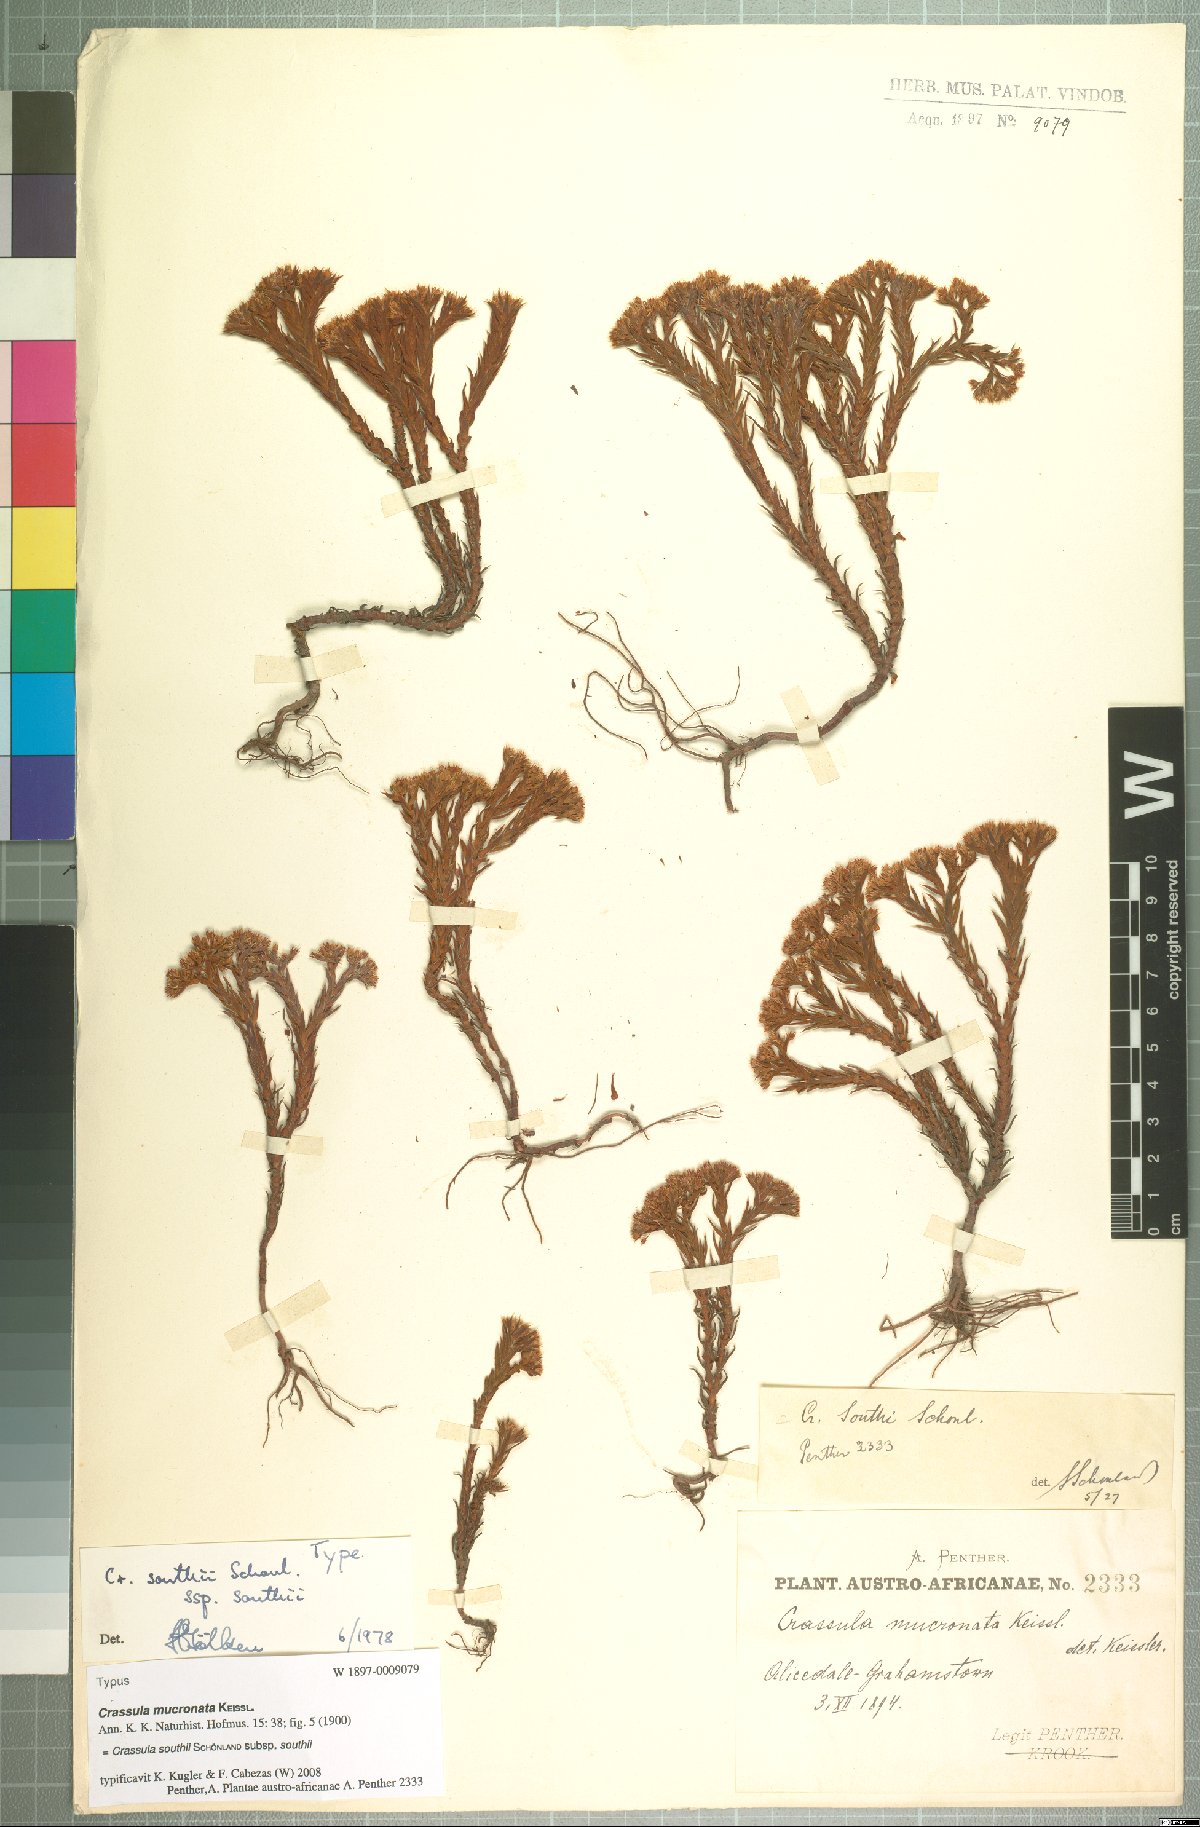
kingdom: Plantae
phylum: Tracheophyta
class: Magnoliopsida
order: Saxifragales
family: Crassulaceae
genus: Crassula
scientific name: Crassula southii
